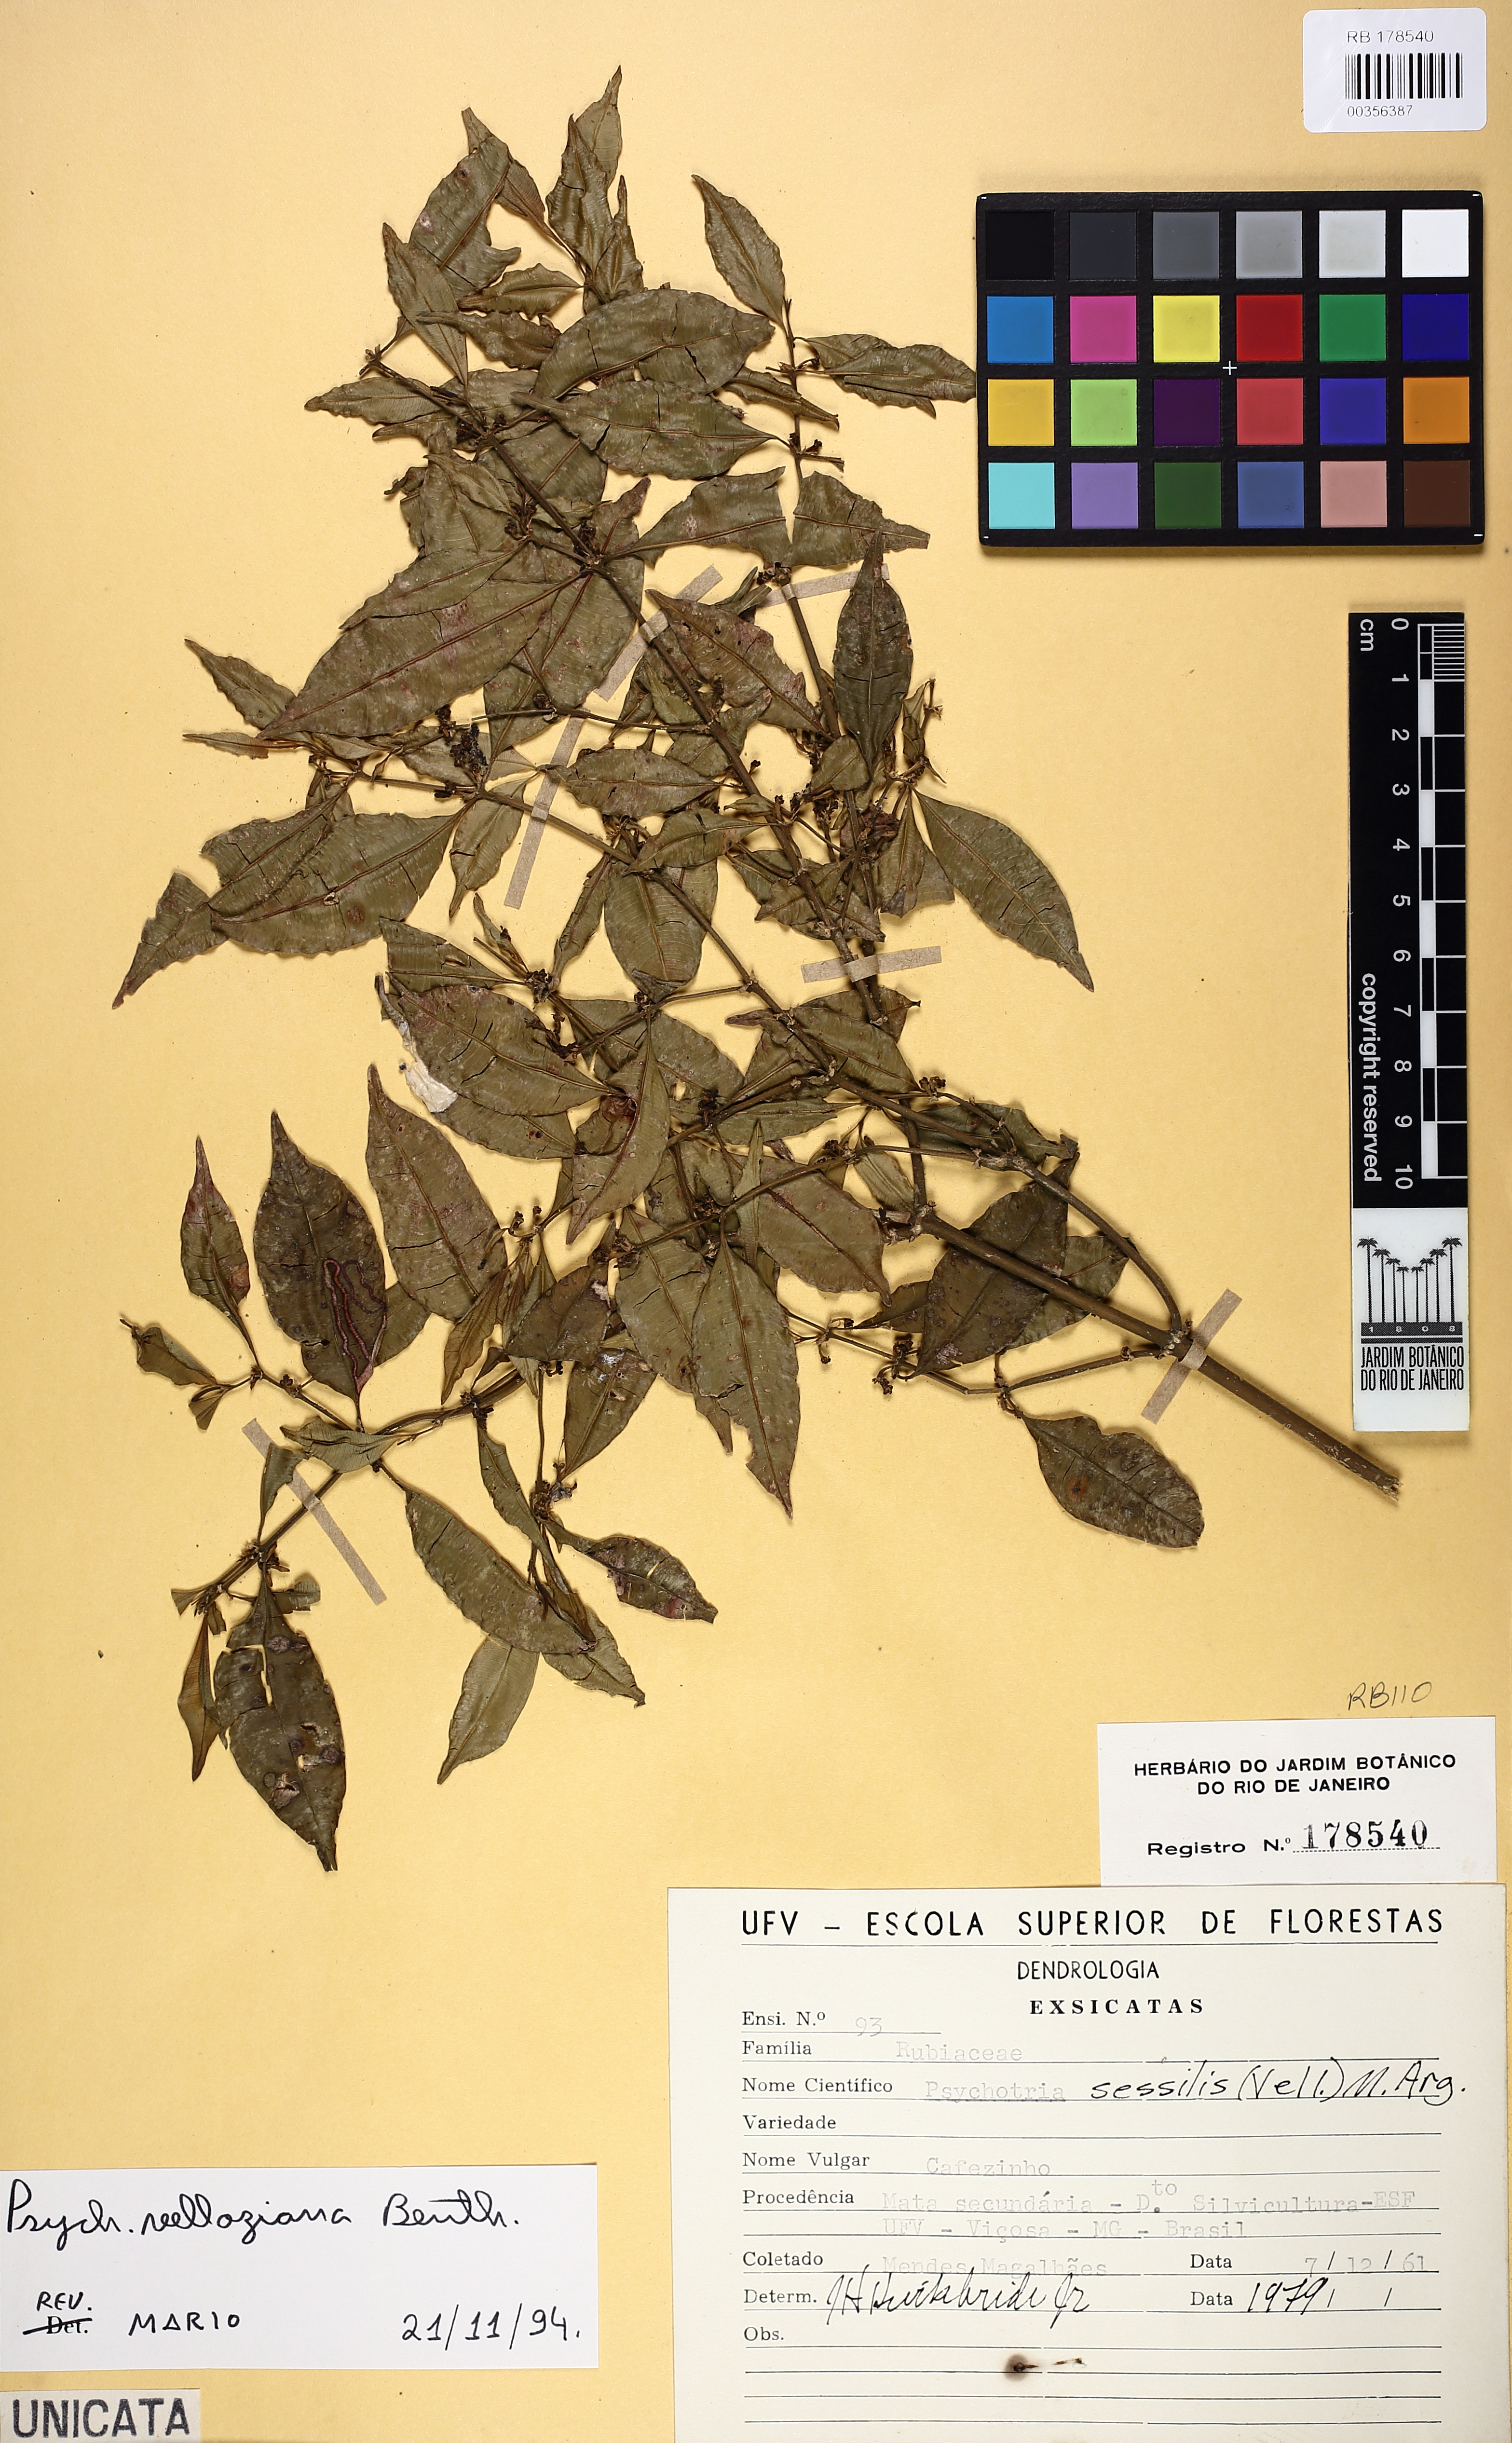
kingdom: Plantae
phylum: Tracheophyta
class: Magnoliopsida
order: Gentianales
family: Rubiaceae
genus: Palicourea
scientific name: Palicourea sessilis
